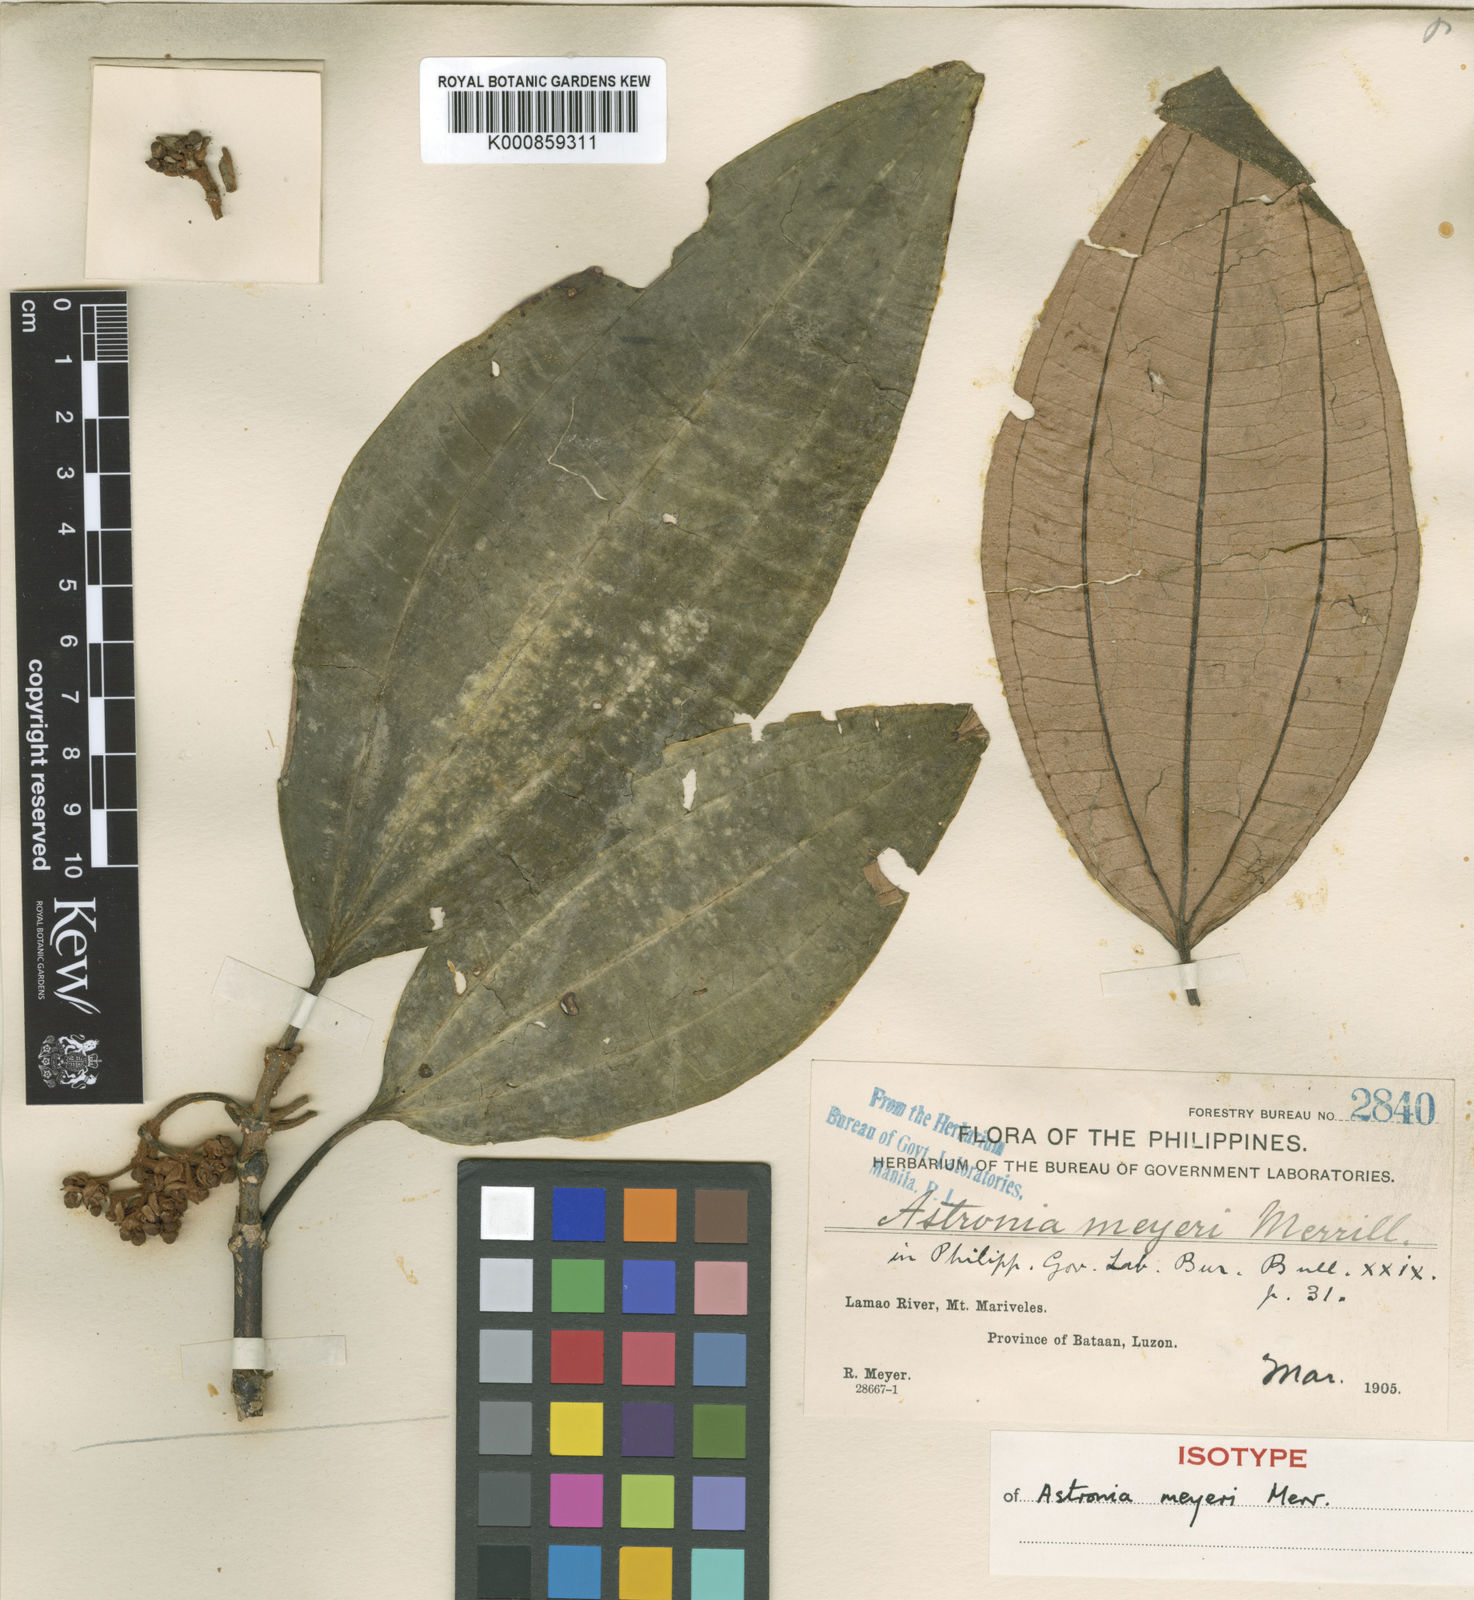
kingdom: Plantae
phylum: Tracheophyta
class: Magnoliopsida
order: Myrtales
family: Melastomataceae
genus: Astronia
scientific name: Astronia meyeri
